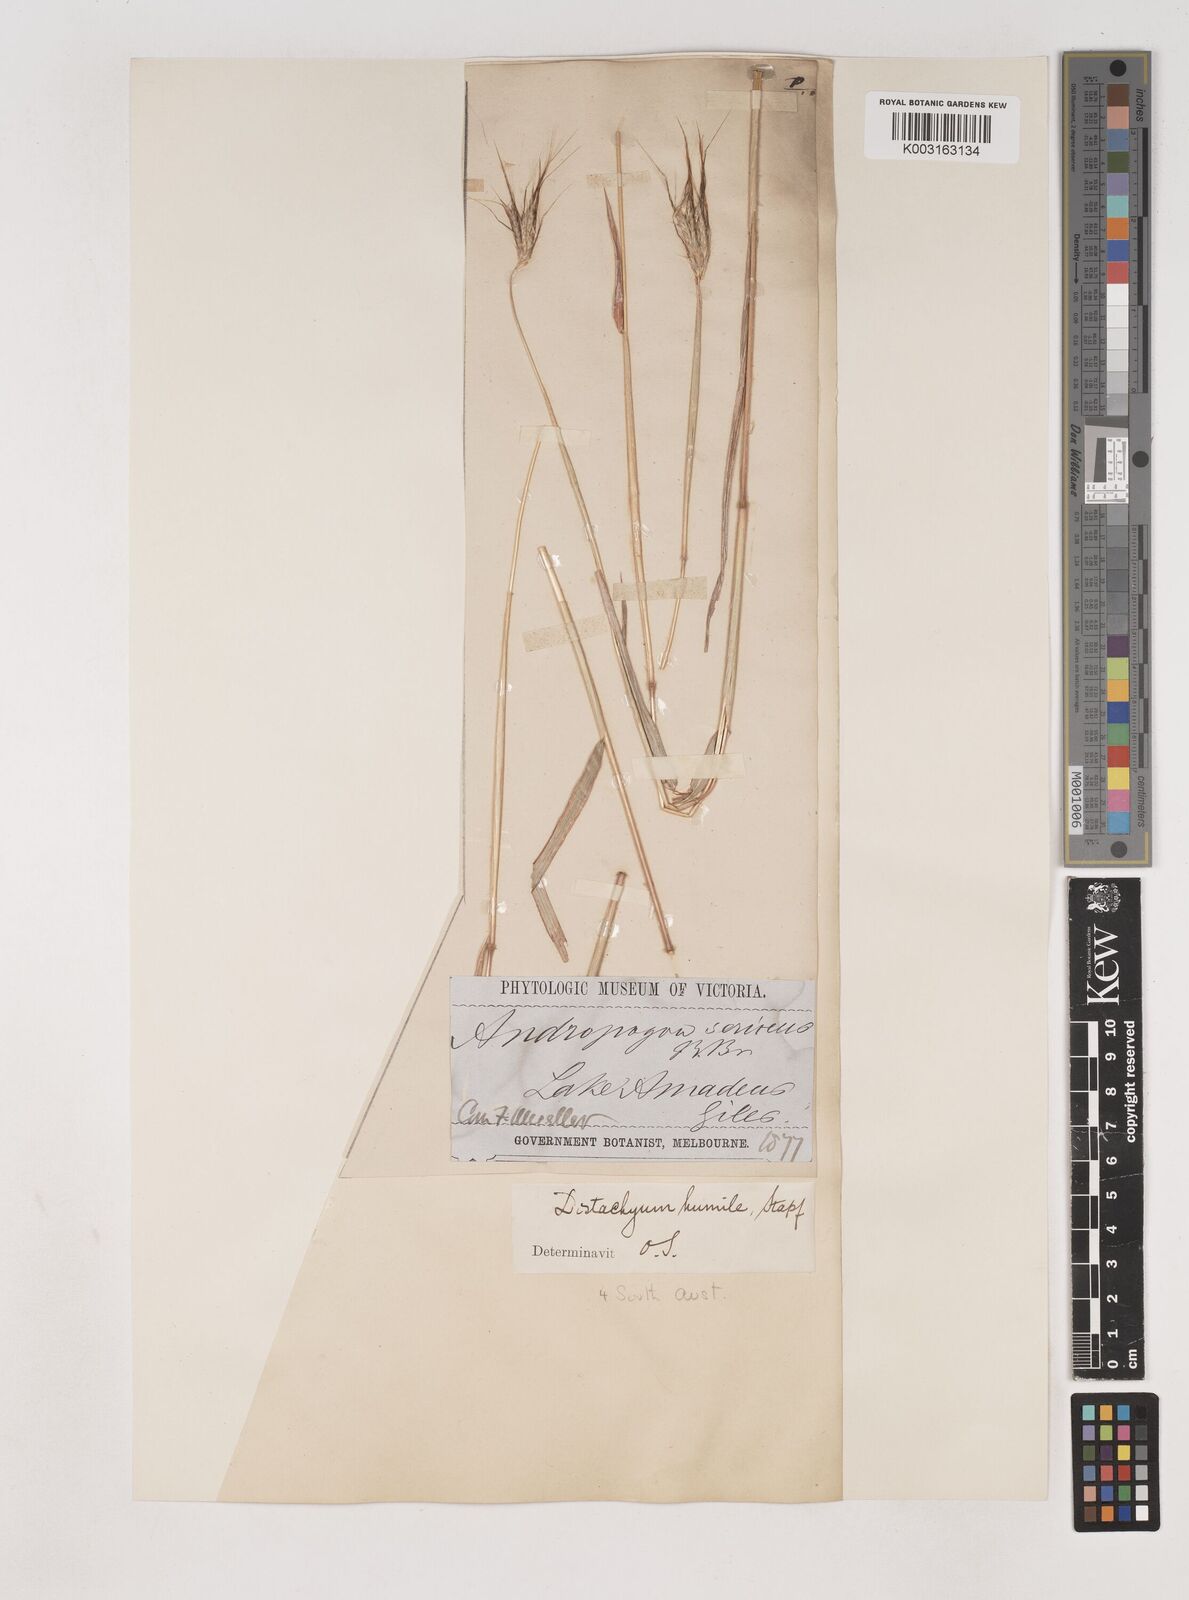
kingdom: Plantae
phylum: Tracheophyta
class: Liliopsida
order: Poales
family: Poaceae
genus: Dichanthium
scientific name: Dichanthium sericeum
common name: Silky bluestem
